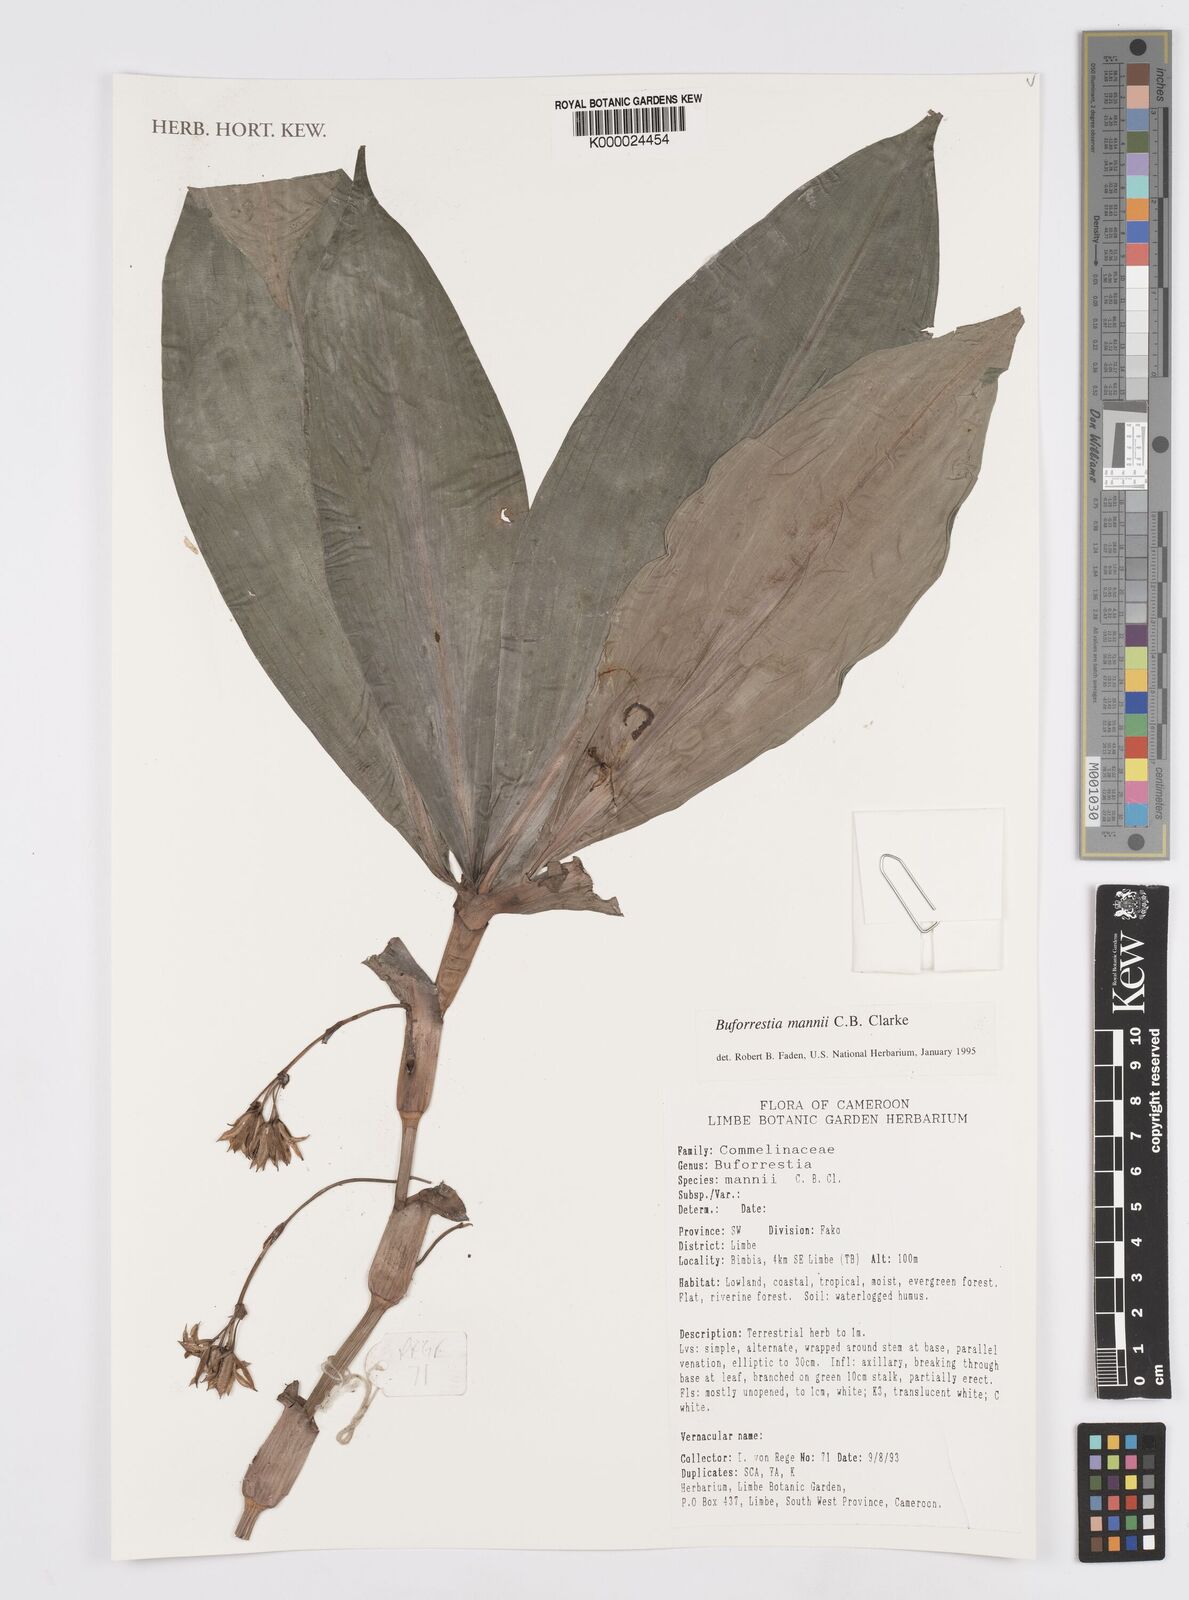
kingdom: Plantae
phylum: Tracheophyta
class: Liliopsida
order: Commelinales
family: Commelinaceae
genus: Buforrestia
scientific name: Buforrestia mannii
